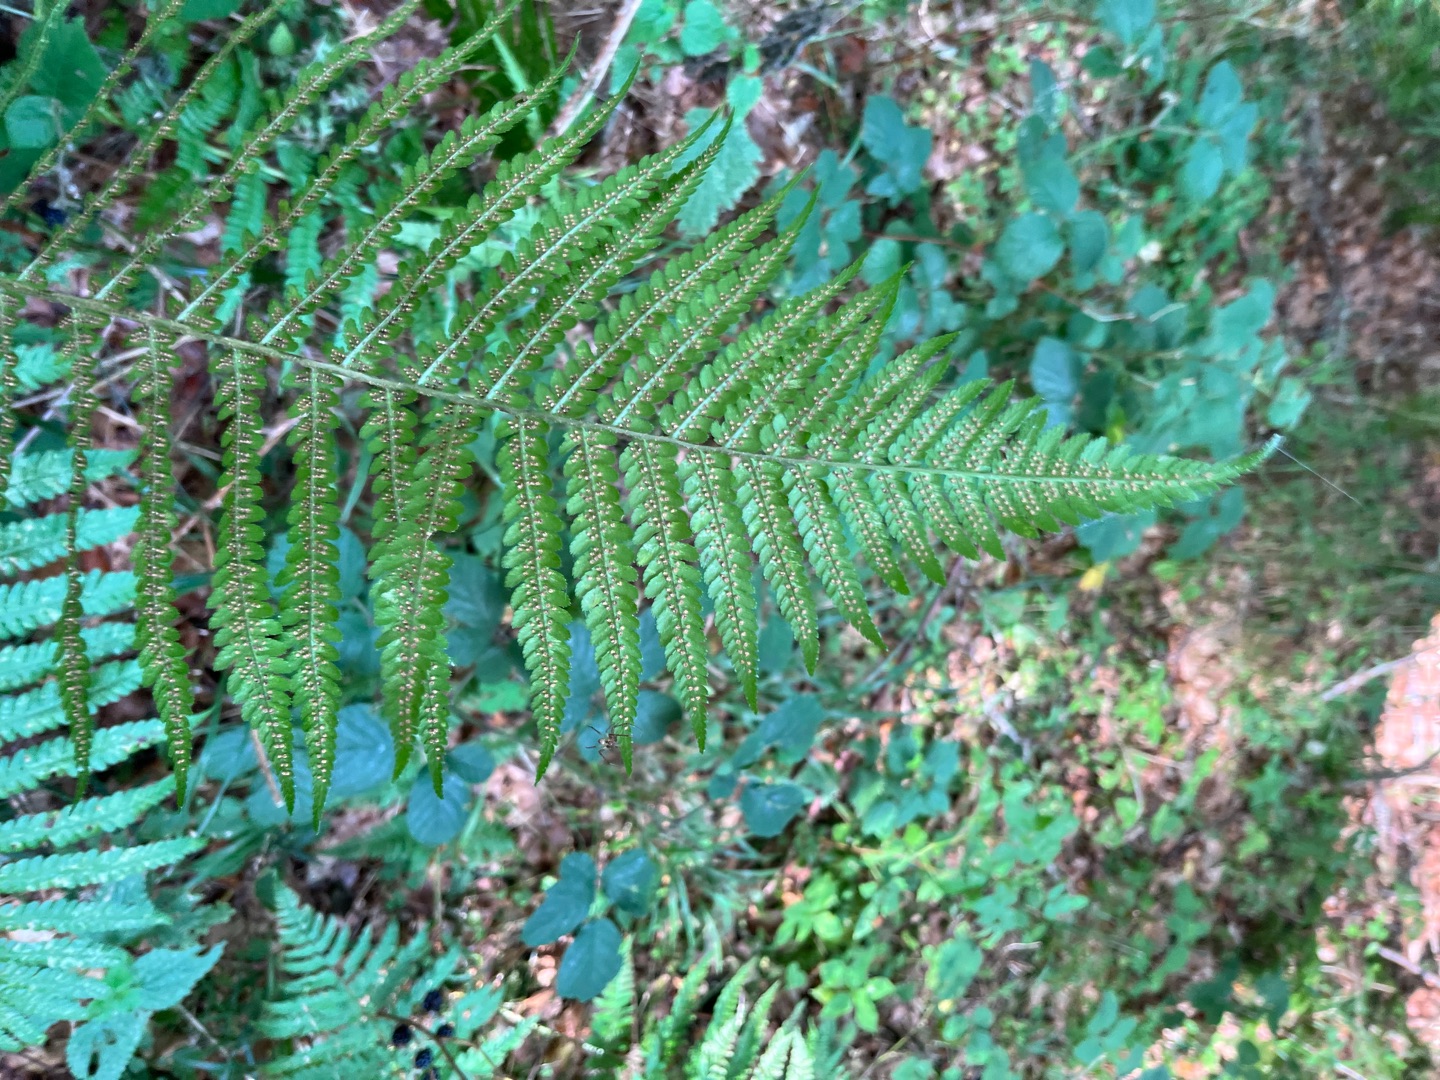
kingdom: Plantae
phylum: Tracheophyta
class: Polypodiopsida
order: Polypodiales
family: Dryopteridaceae
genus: Dryopteris
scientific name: Dryopteris filix-mas
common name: Almindelig mangeløv
